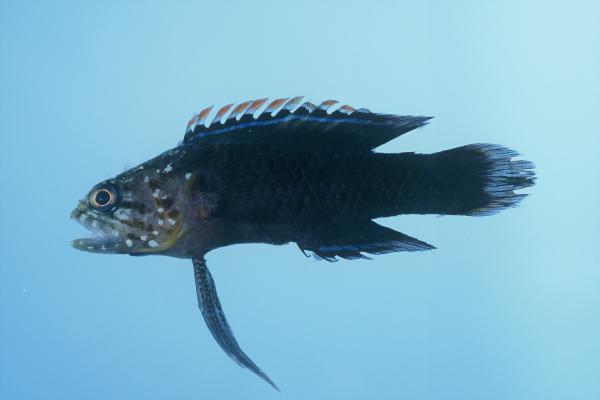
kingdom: Animalia
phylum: Chordata
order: Perciformes
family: Plesiopidae
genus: Plesiops
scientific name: Plesiops coeruleolineatus
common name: Crimsontip longfin
